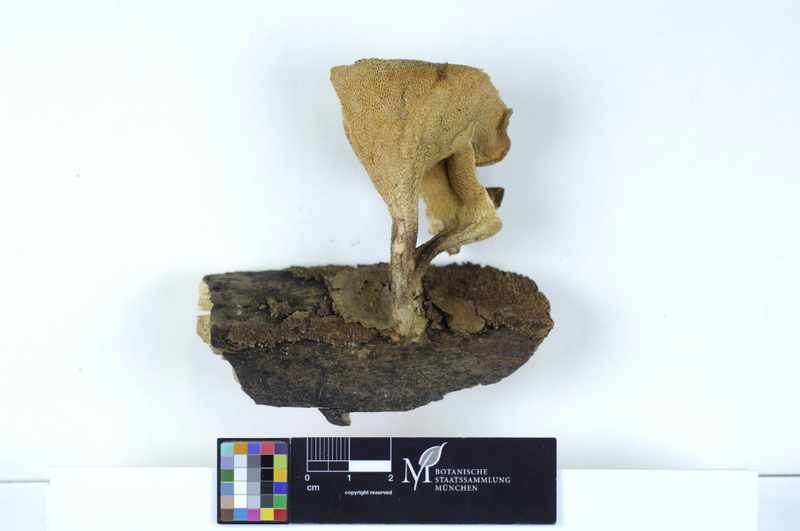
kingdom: Fungi
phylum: Basidiomycota
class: Agaricomycetes
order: Polyporales
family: Polyporaceae
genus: Polyporus
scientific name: Polyporus tuberaster
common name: Tuberous polypore
